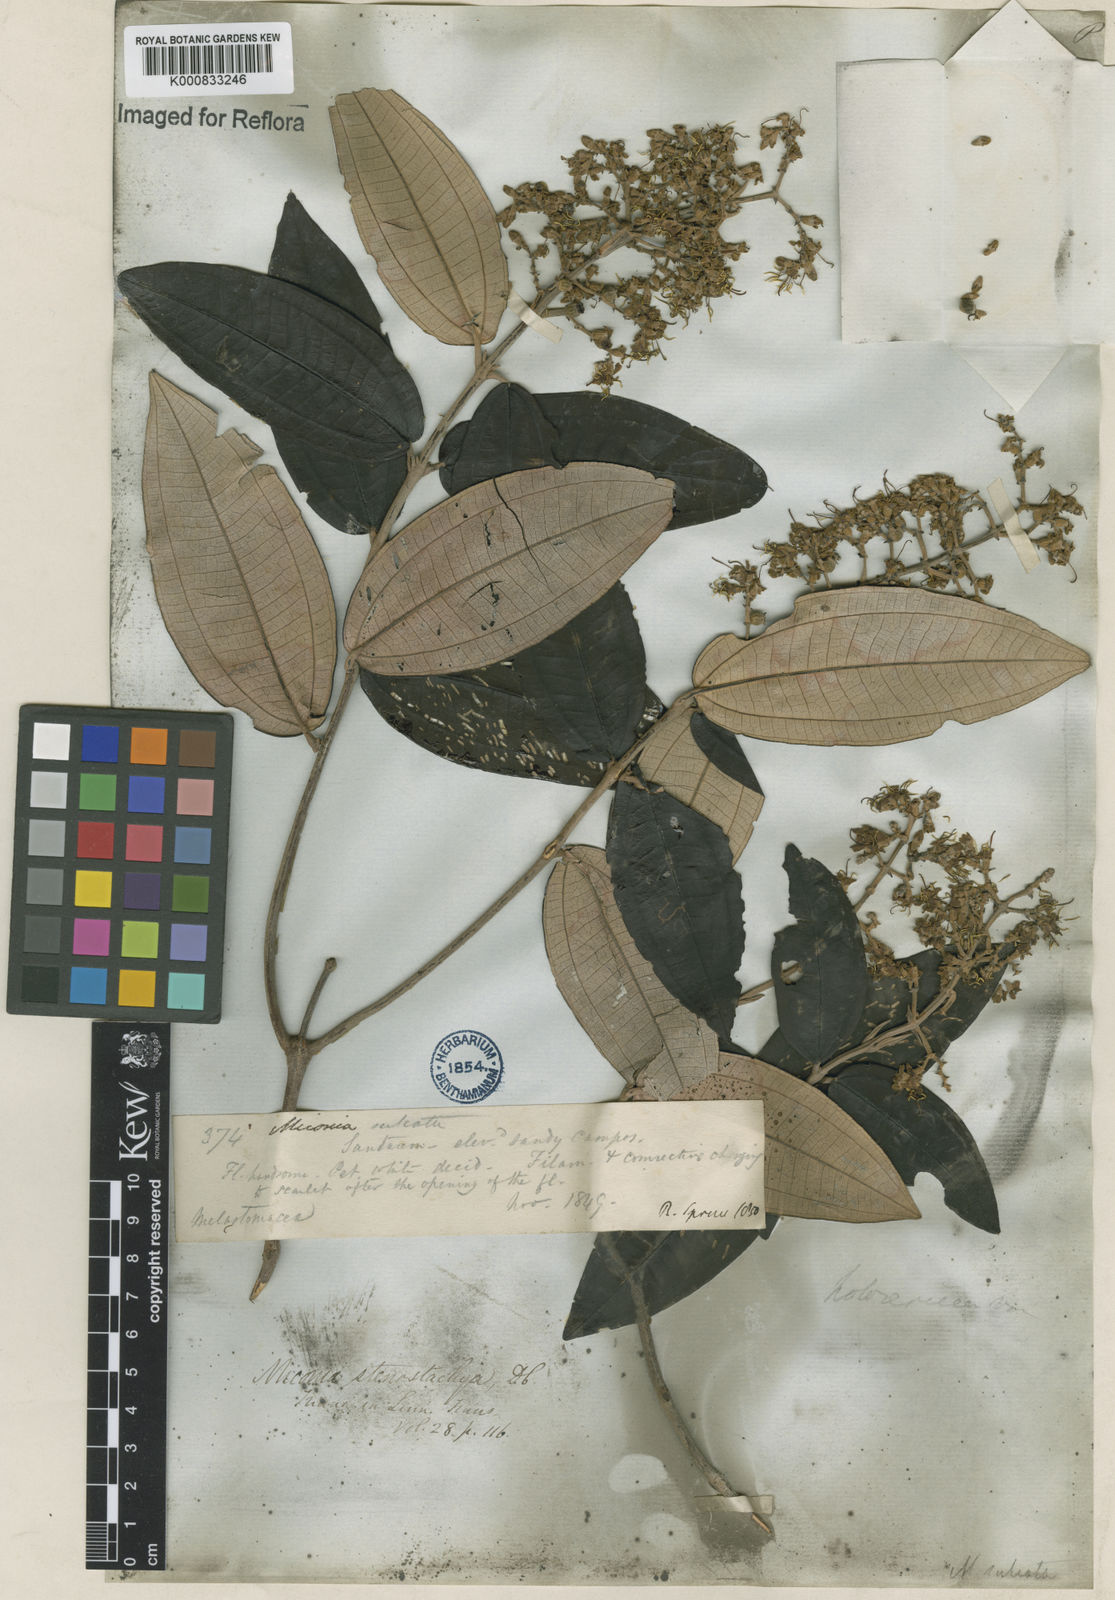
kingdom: Plantae
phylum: Tracheophyta
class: Magnoliopsida
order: Myrtales
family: Melastomataceae
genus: Miconia
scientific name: Miconia stenostachya
